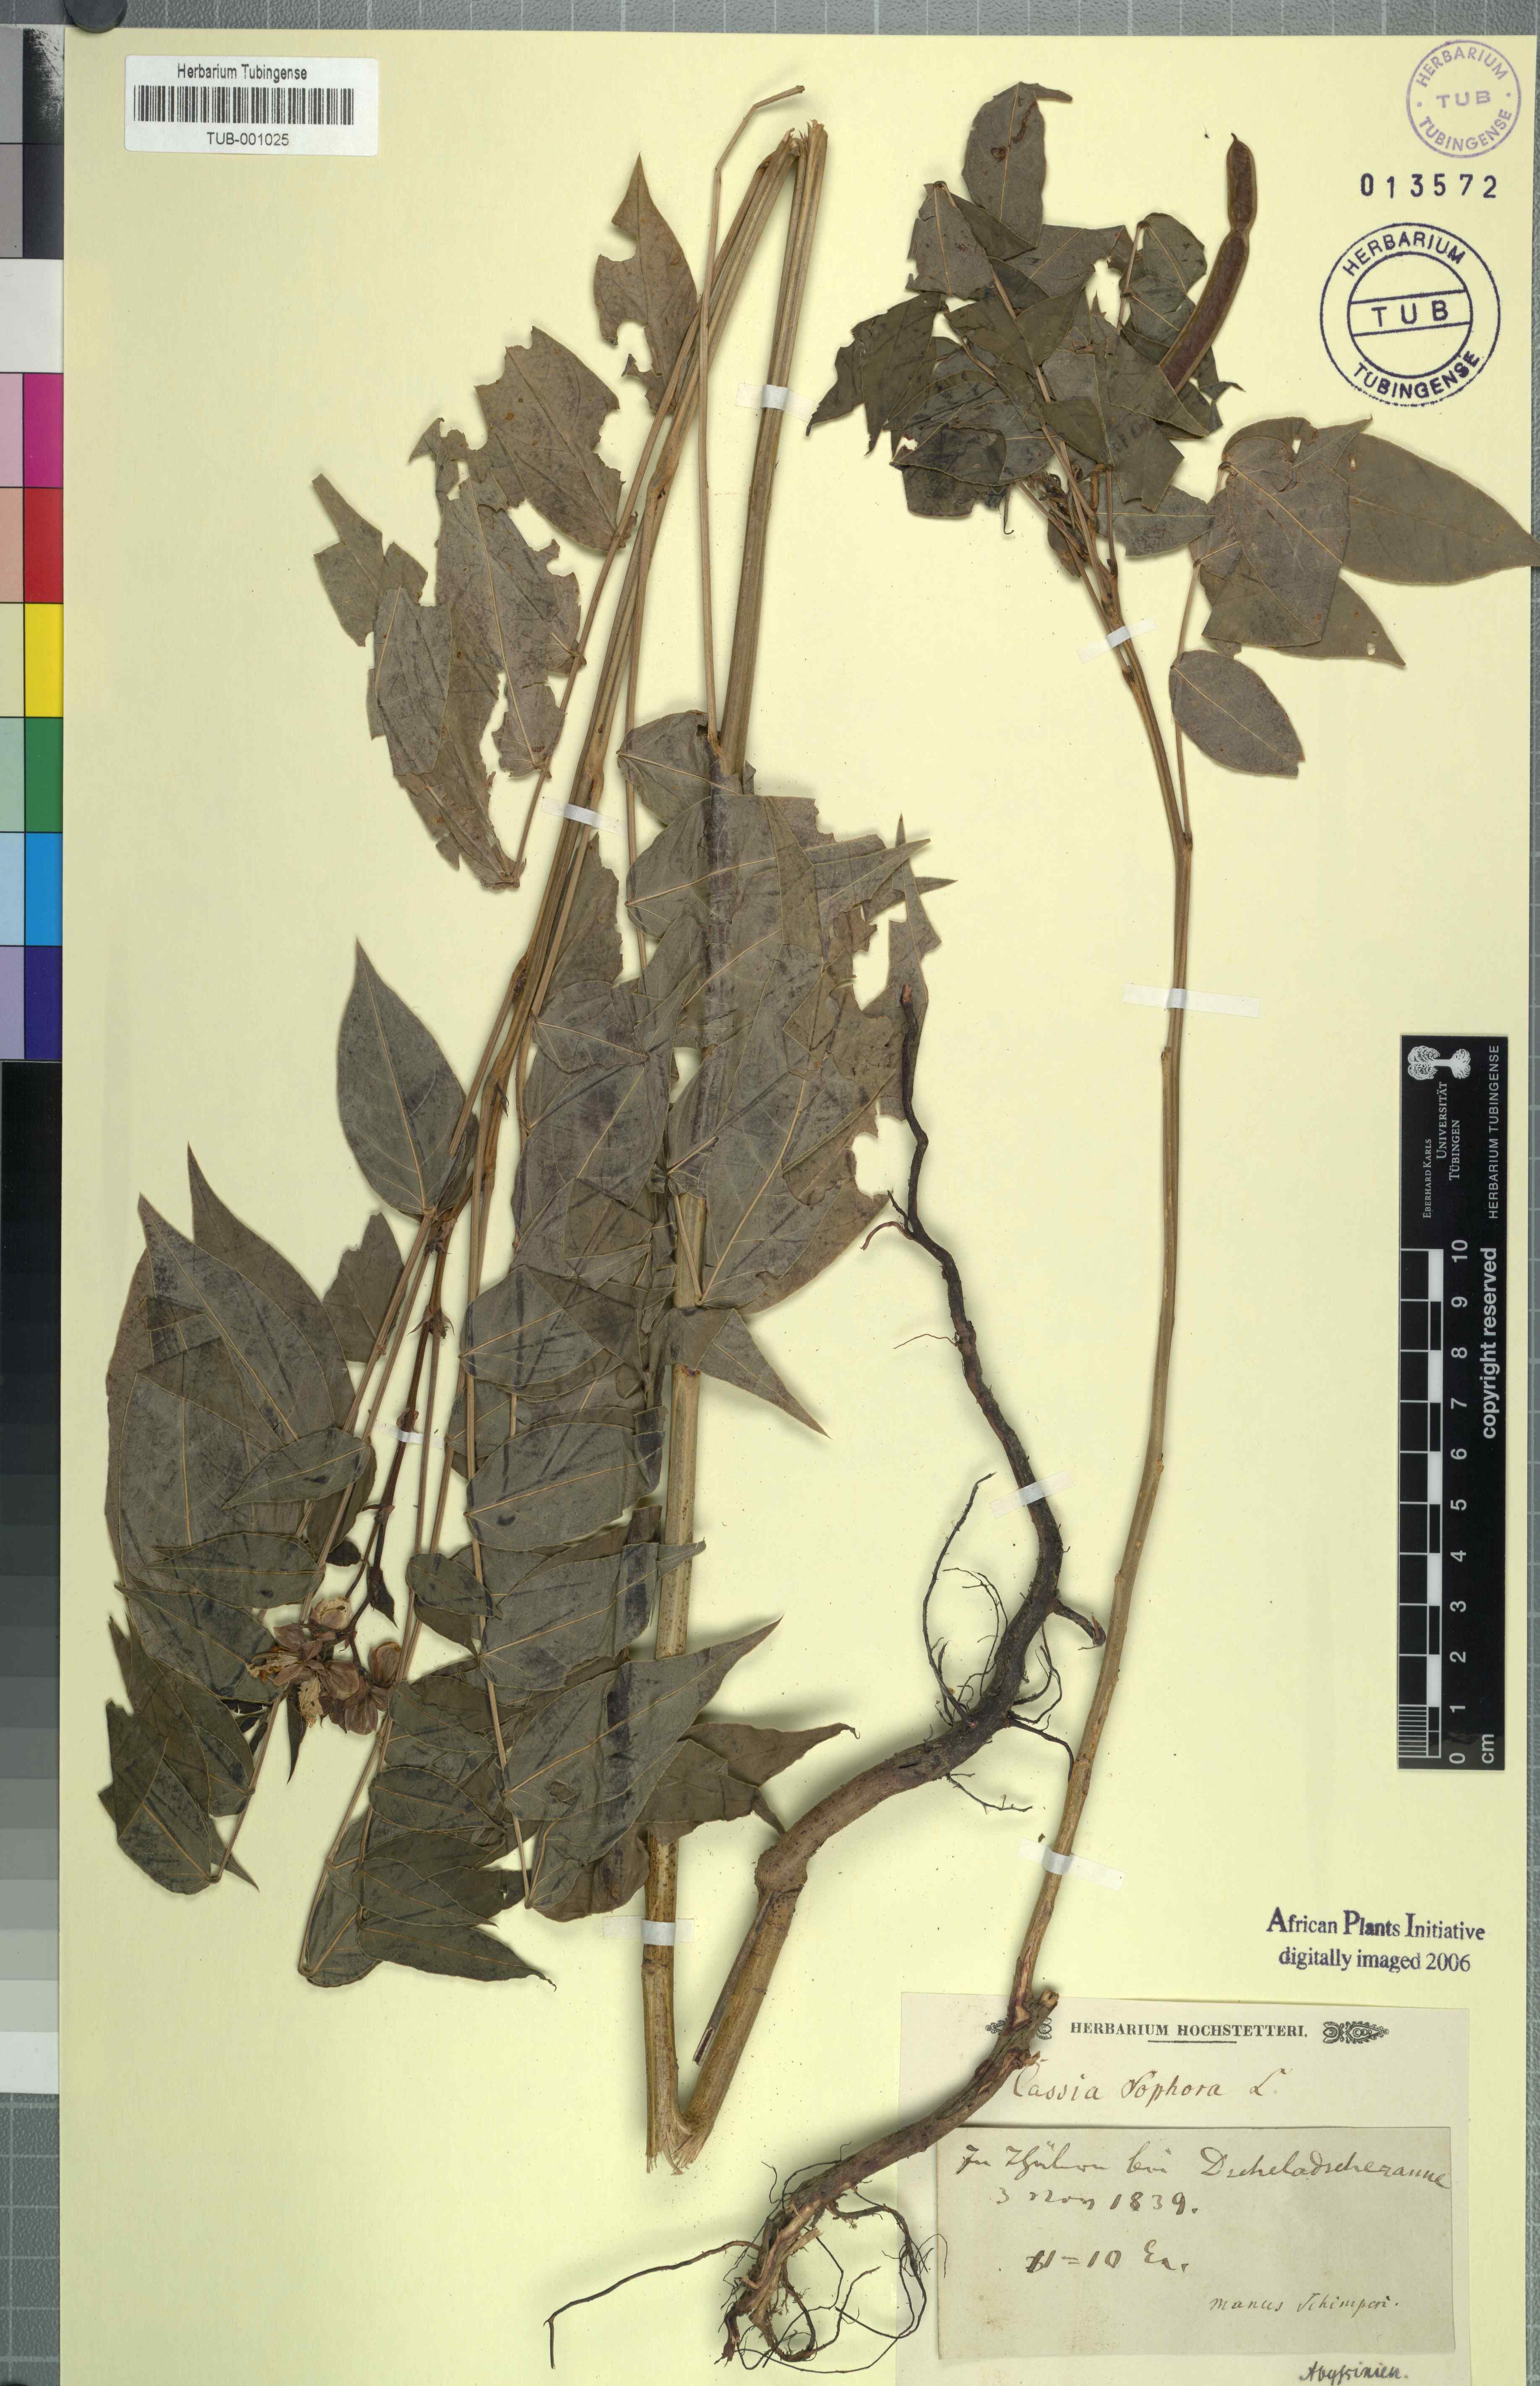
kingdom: Plantae
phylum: Tracheophyta
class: Magnoliopsida
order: Fabales
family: Fabaceae
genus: Senna
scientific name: Senna sophera
